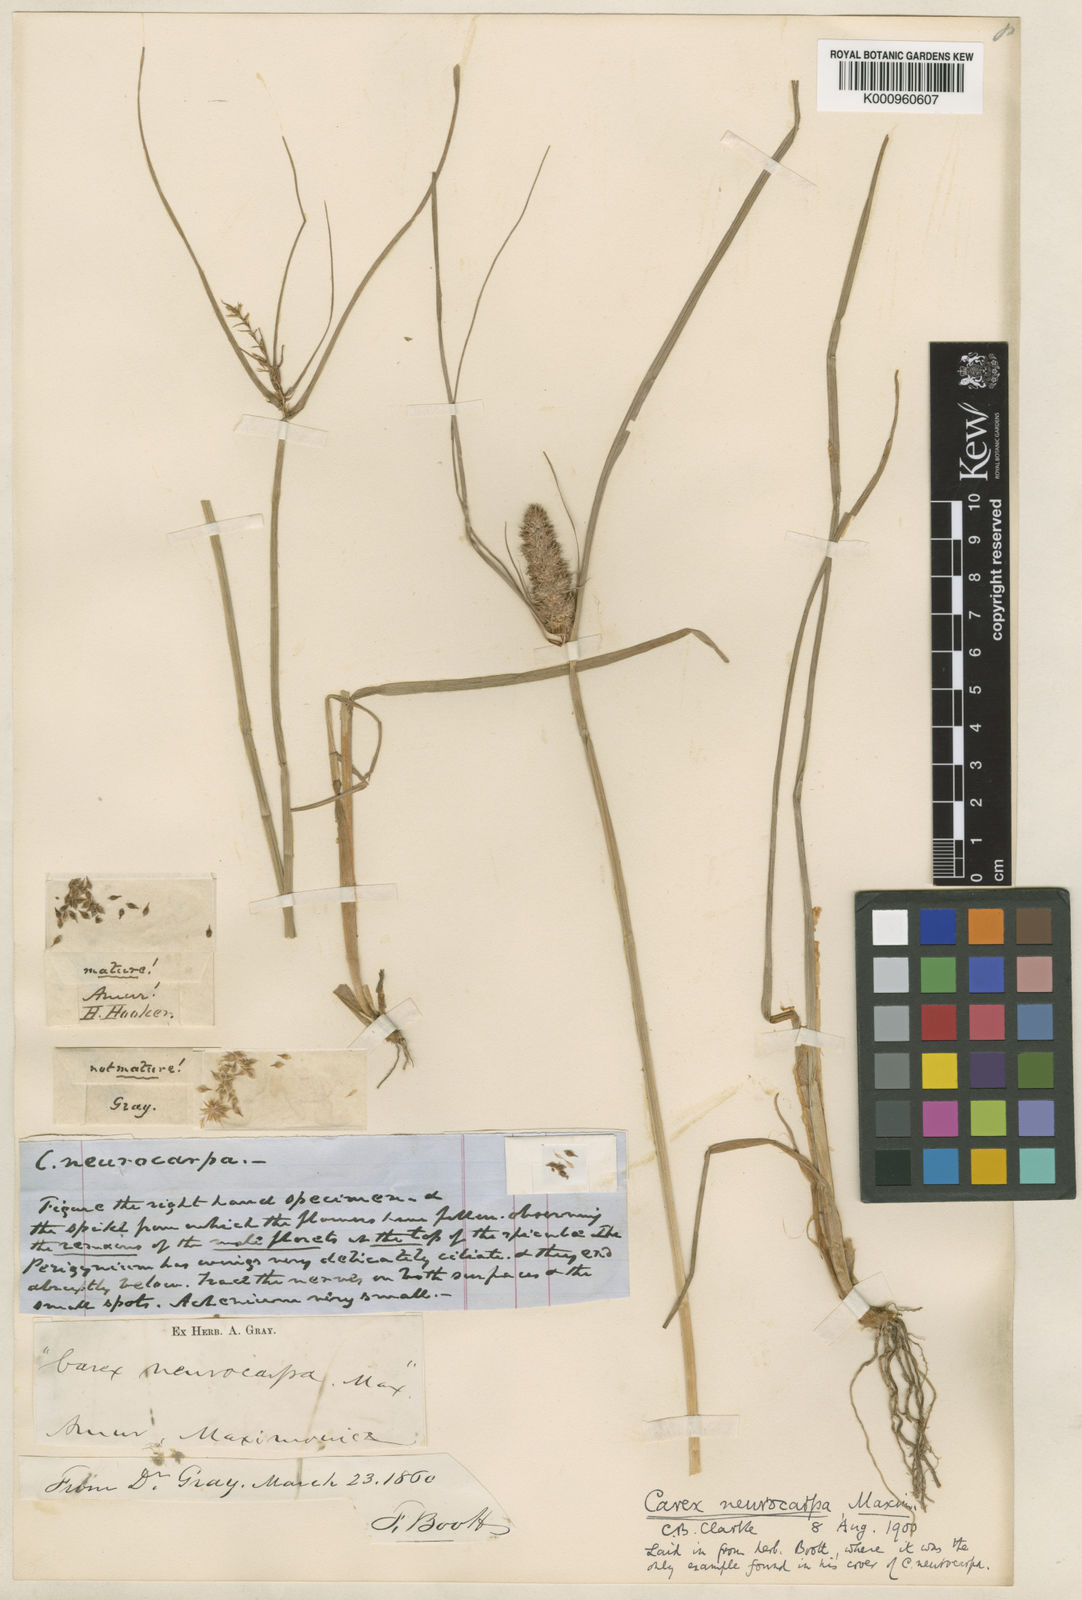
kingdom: Plantae
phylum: Tracheophyta
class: Liliopsida
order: Poales
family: Cyperaceae
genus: Carex
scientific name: Carex neurocarpa
